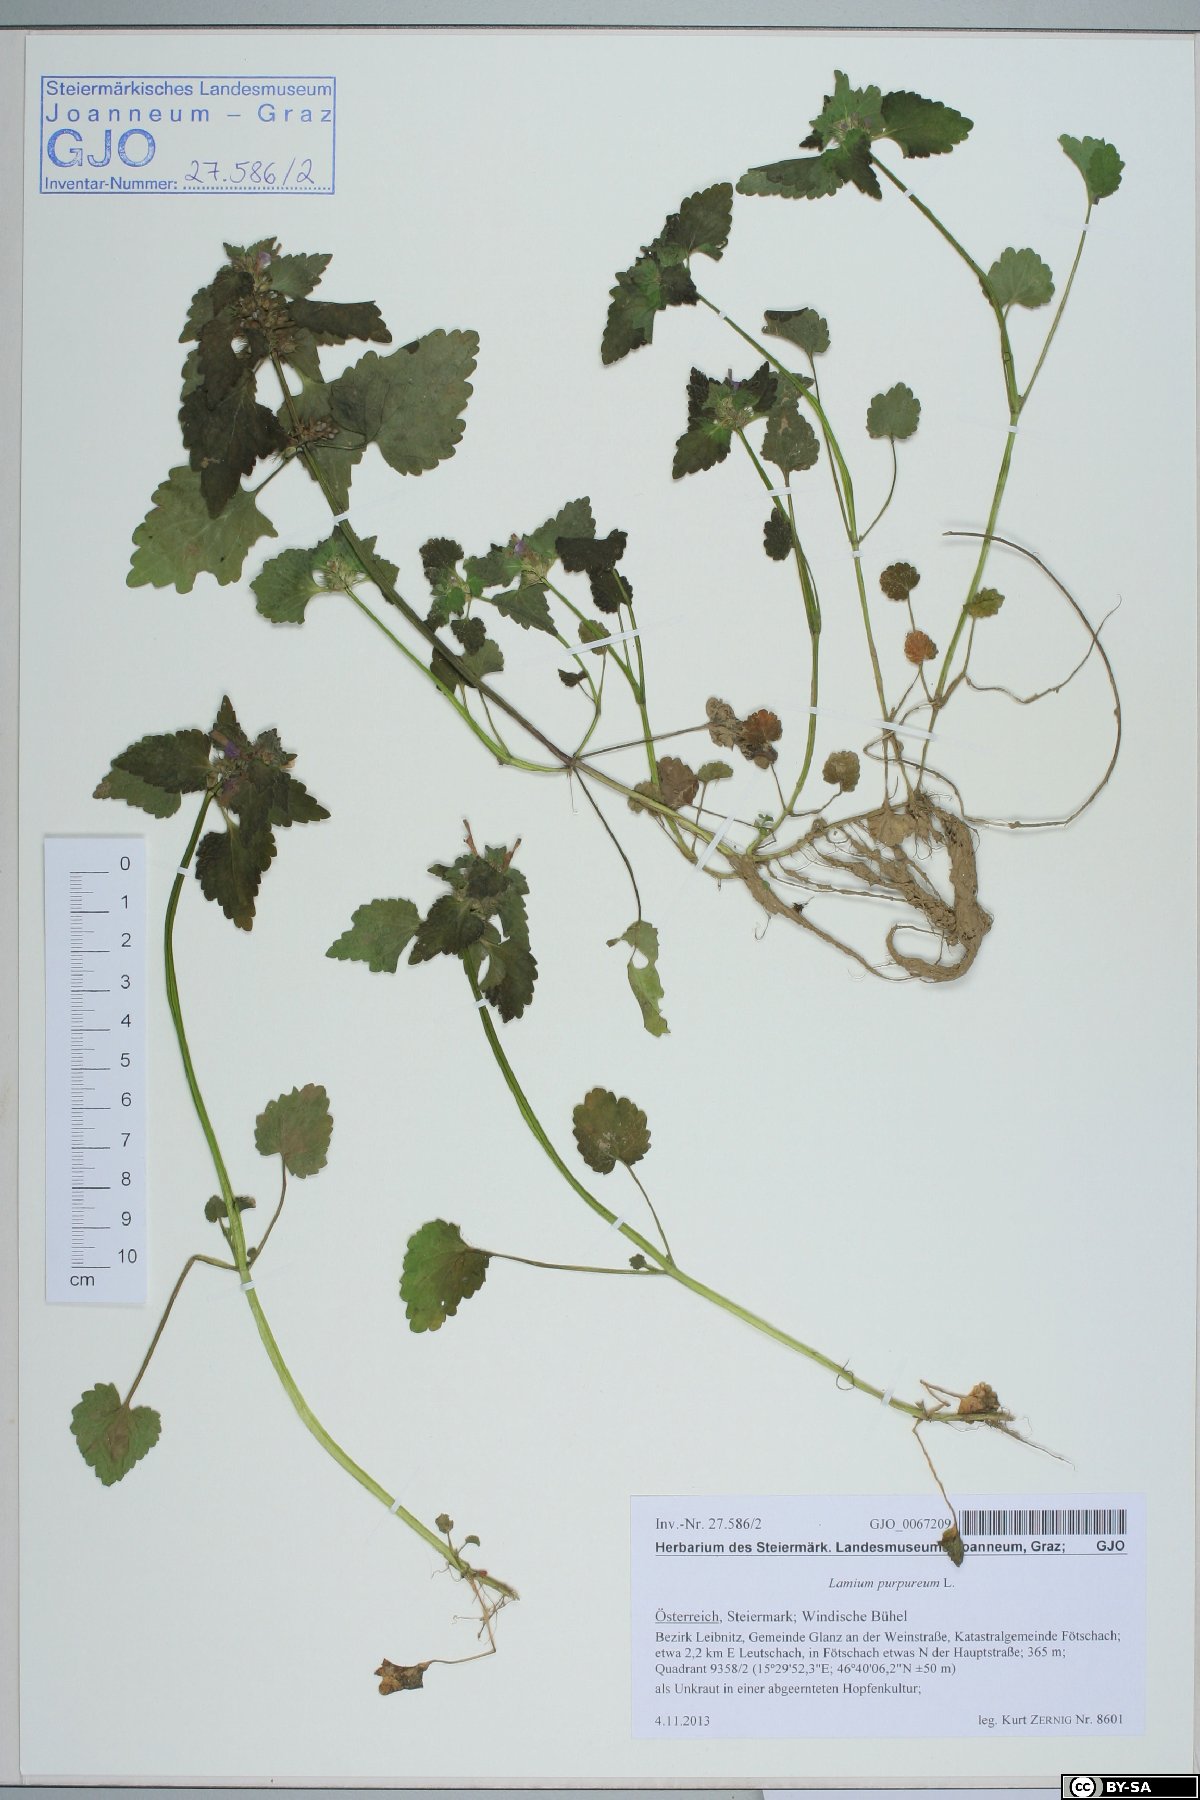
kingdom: Plantae
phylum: Tracheophyta
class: Magnoliopsida
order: Lamiales
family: Lamiaceae
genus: Lamium
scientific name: Lamium purpureum
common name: Red dead-nettle
